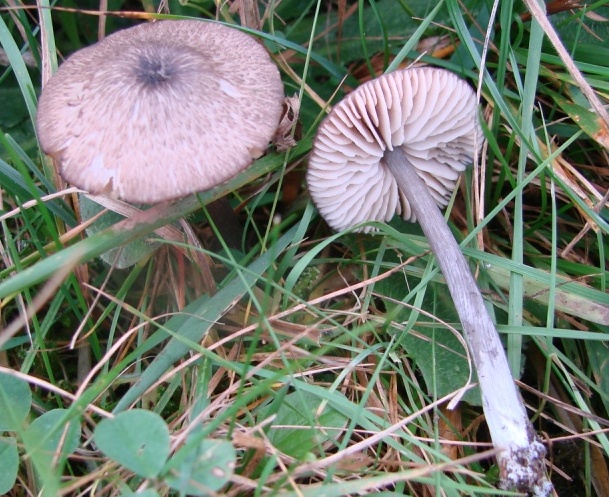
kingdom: Fungi
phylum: Basidiomycota
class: Agaricomycetes
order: Agaricales
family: Entolomataceae
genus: Entoloma
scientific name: Entoloma griseocyaneum
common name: gråblå rødblad
